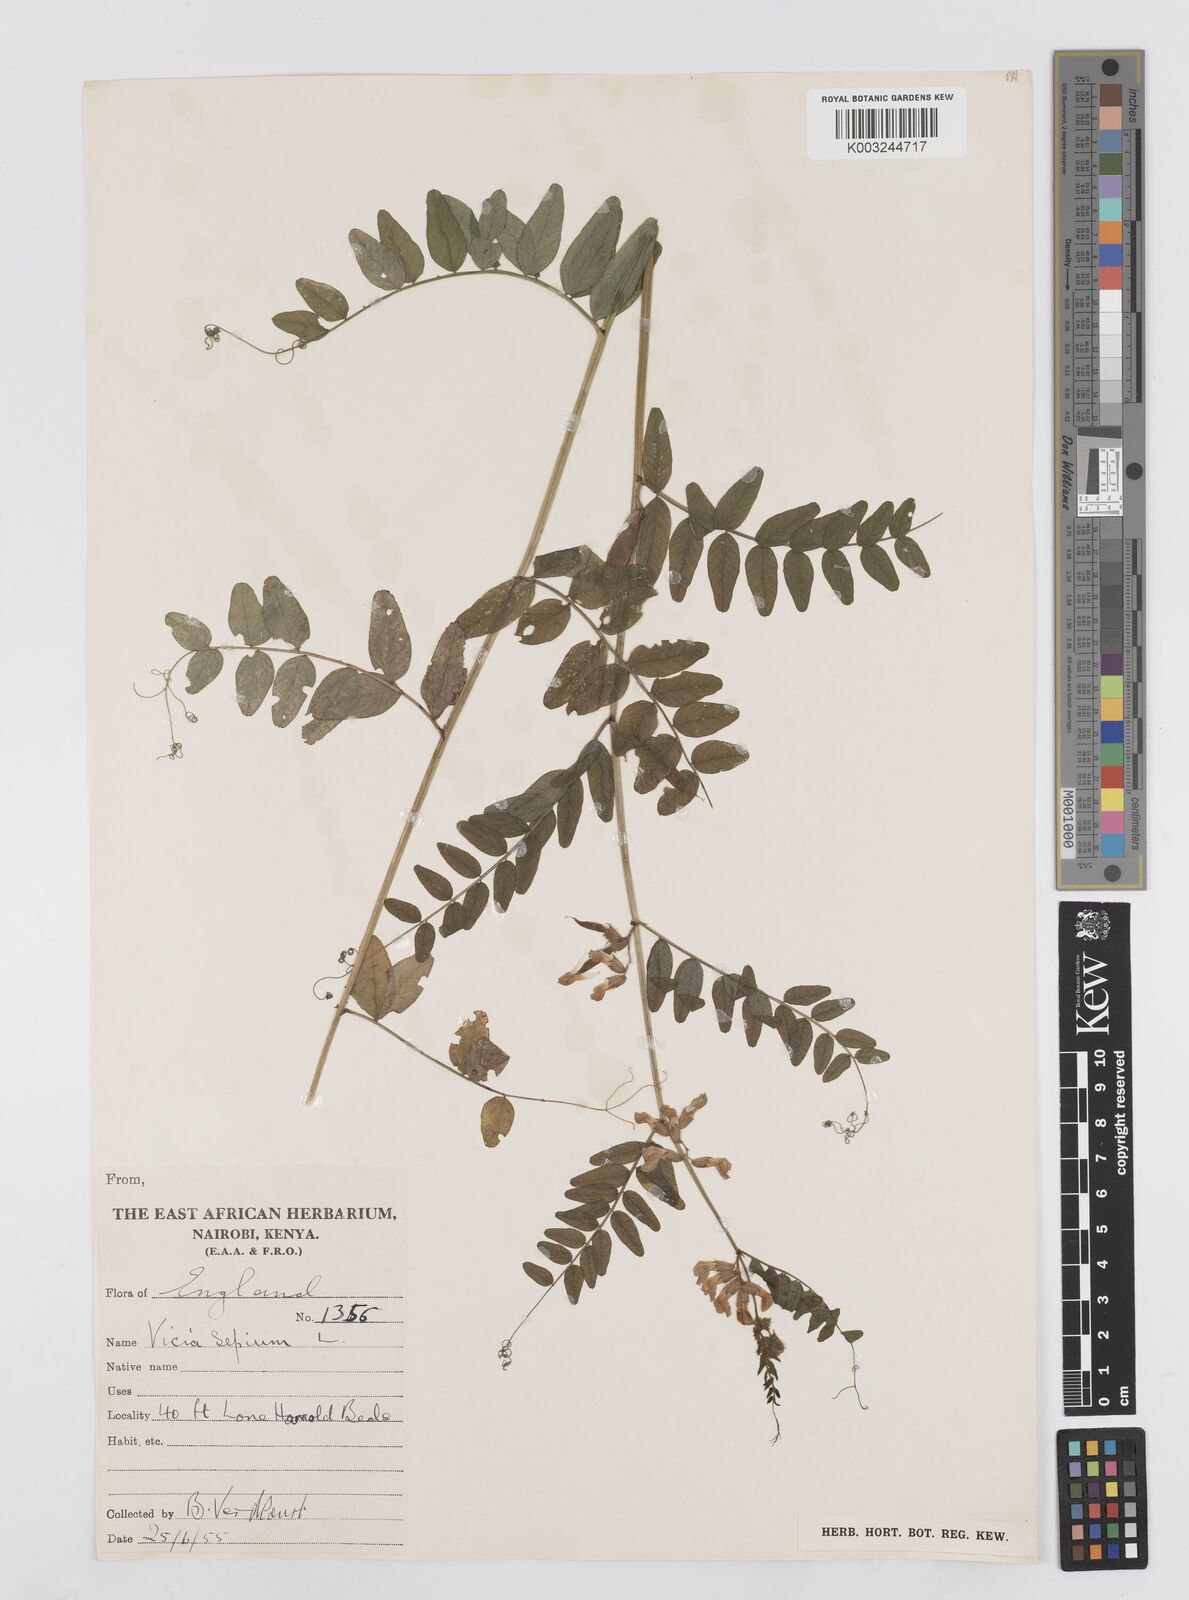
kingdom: Plantae
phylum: Tracheophyta
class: Magnoliopsida
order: Fabales
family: Fabaceae
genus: Vicia
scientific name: Vicia sepium
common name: Bush vetch
